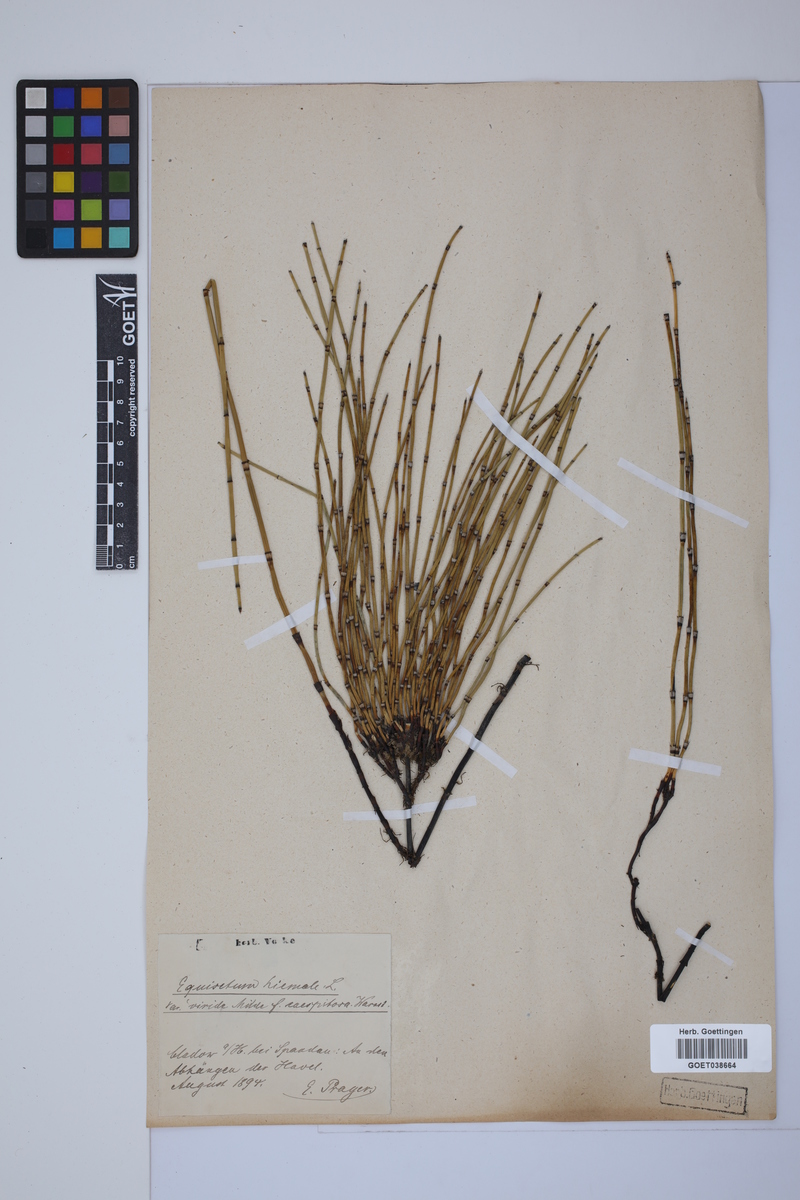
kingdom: Plantae
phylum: Tracheophyta
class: Polypodiopsida
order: Equisetales
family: Equisetaceae
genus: Equisetum
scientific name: Equisetum hyemale
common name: Rough horsetail
